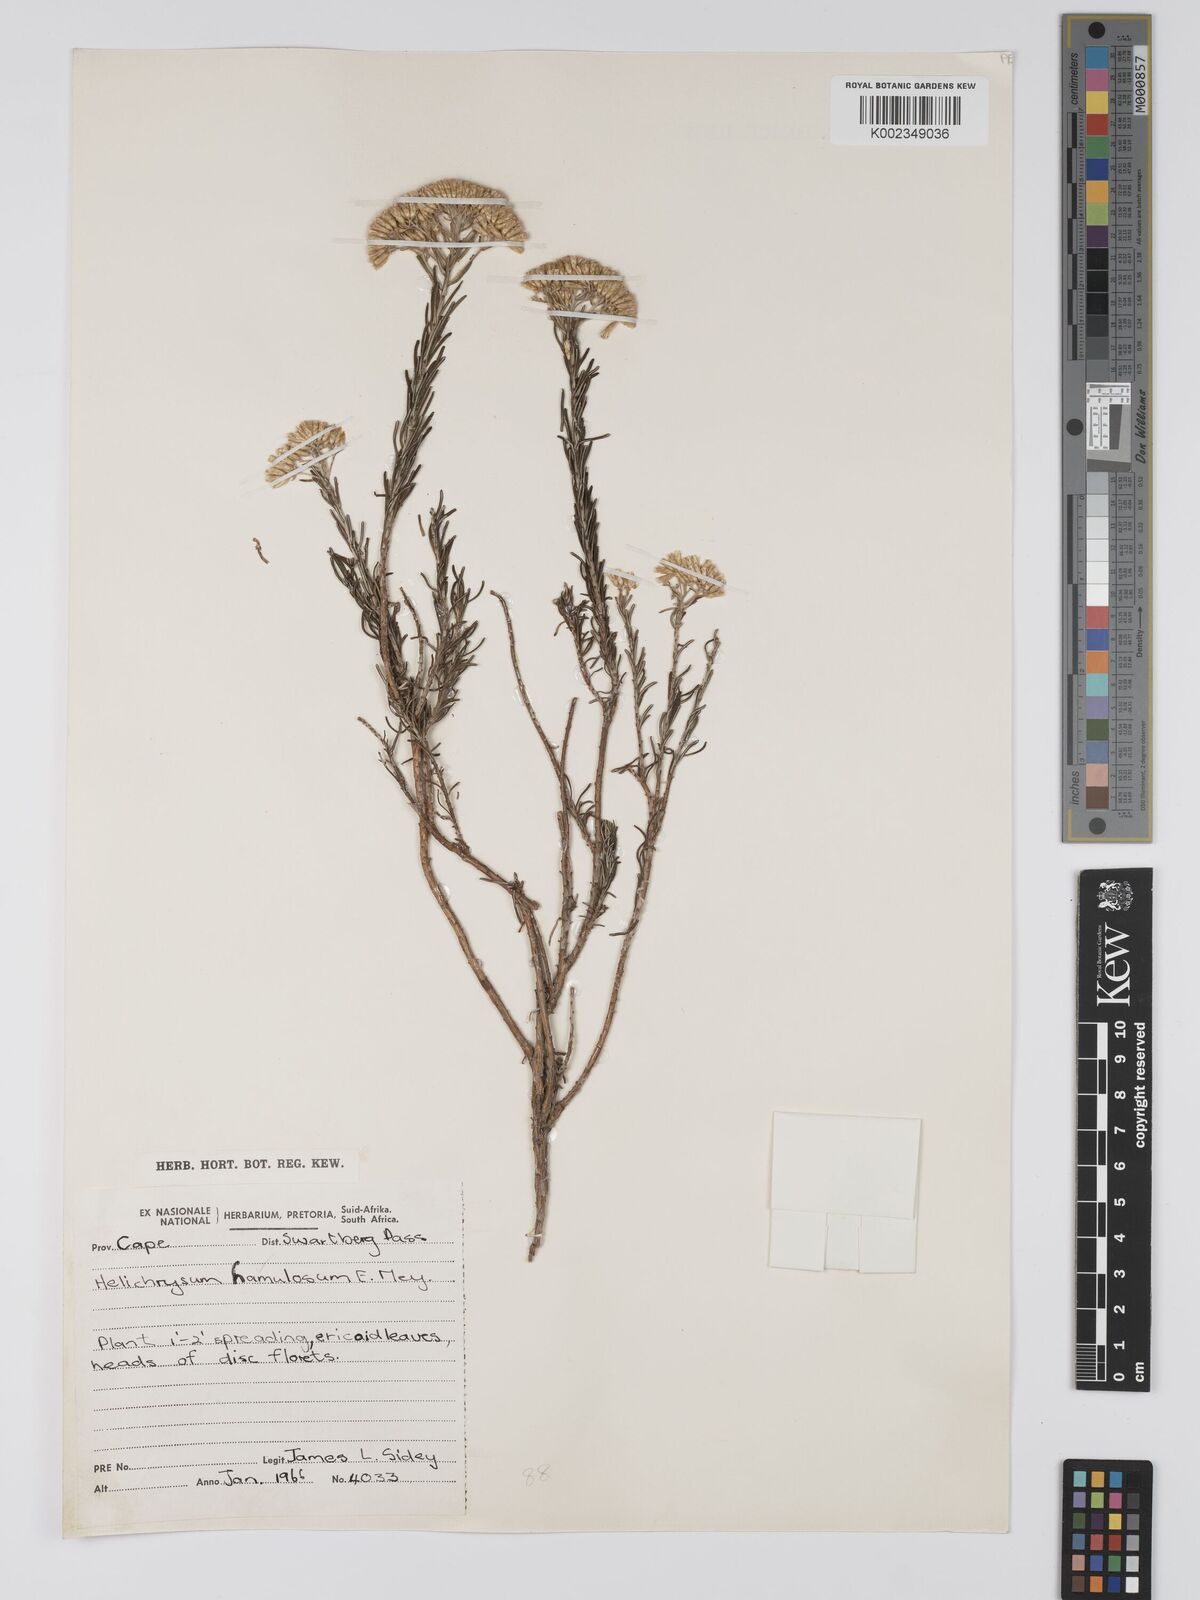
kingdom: Plantae
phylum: Tracheophyta
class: Magnoliopsida
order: Asterales
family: Asteraceae
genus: Helichrysum
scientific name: Helichrysum hamulosum
